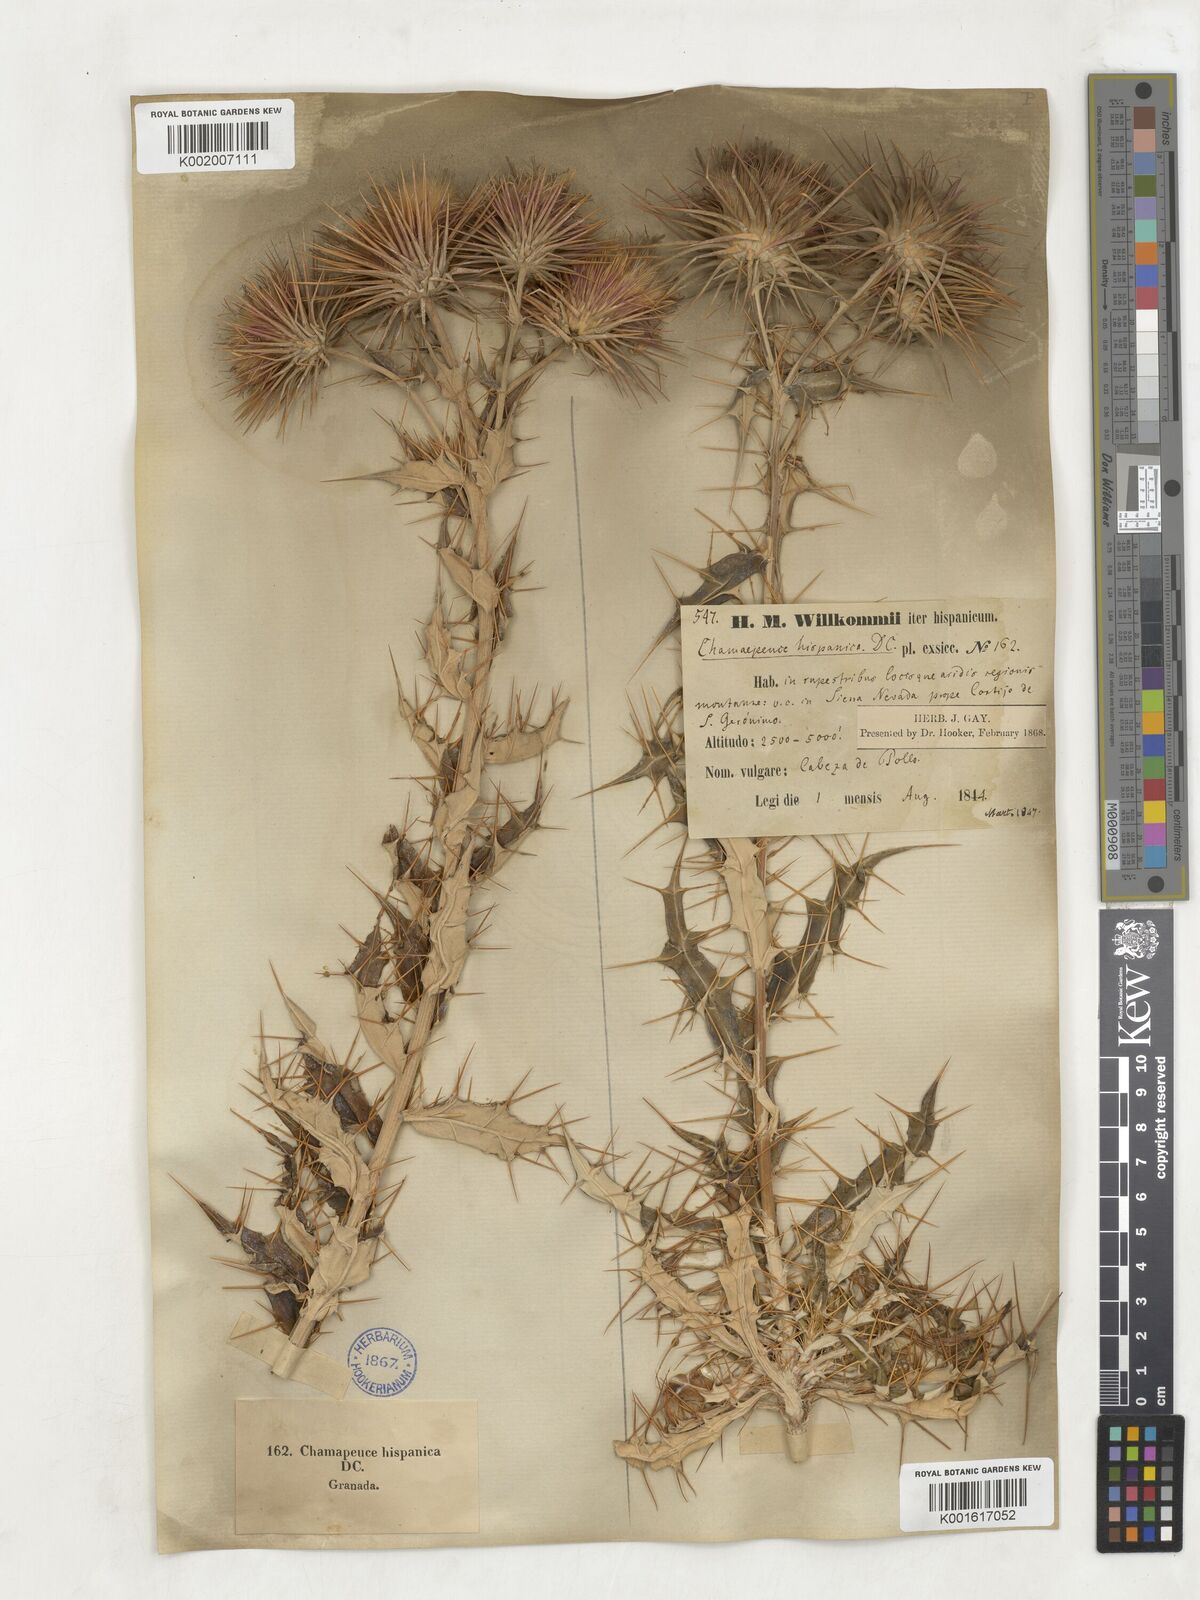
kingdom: Plantae
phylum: Tracheophyta
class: Magnoliopsida
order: Asterales
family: Asteraceae
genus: Ptilostemon
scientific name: Ptilostemon hispanicus
